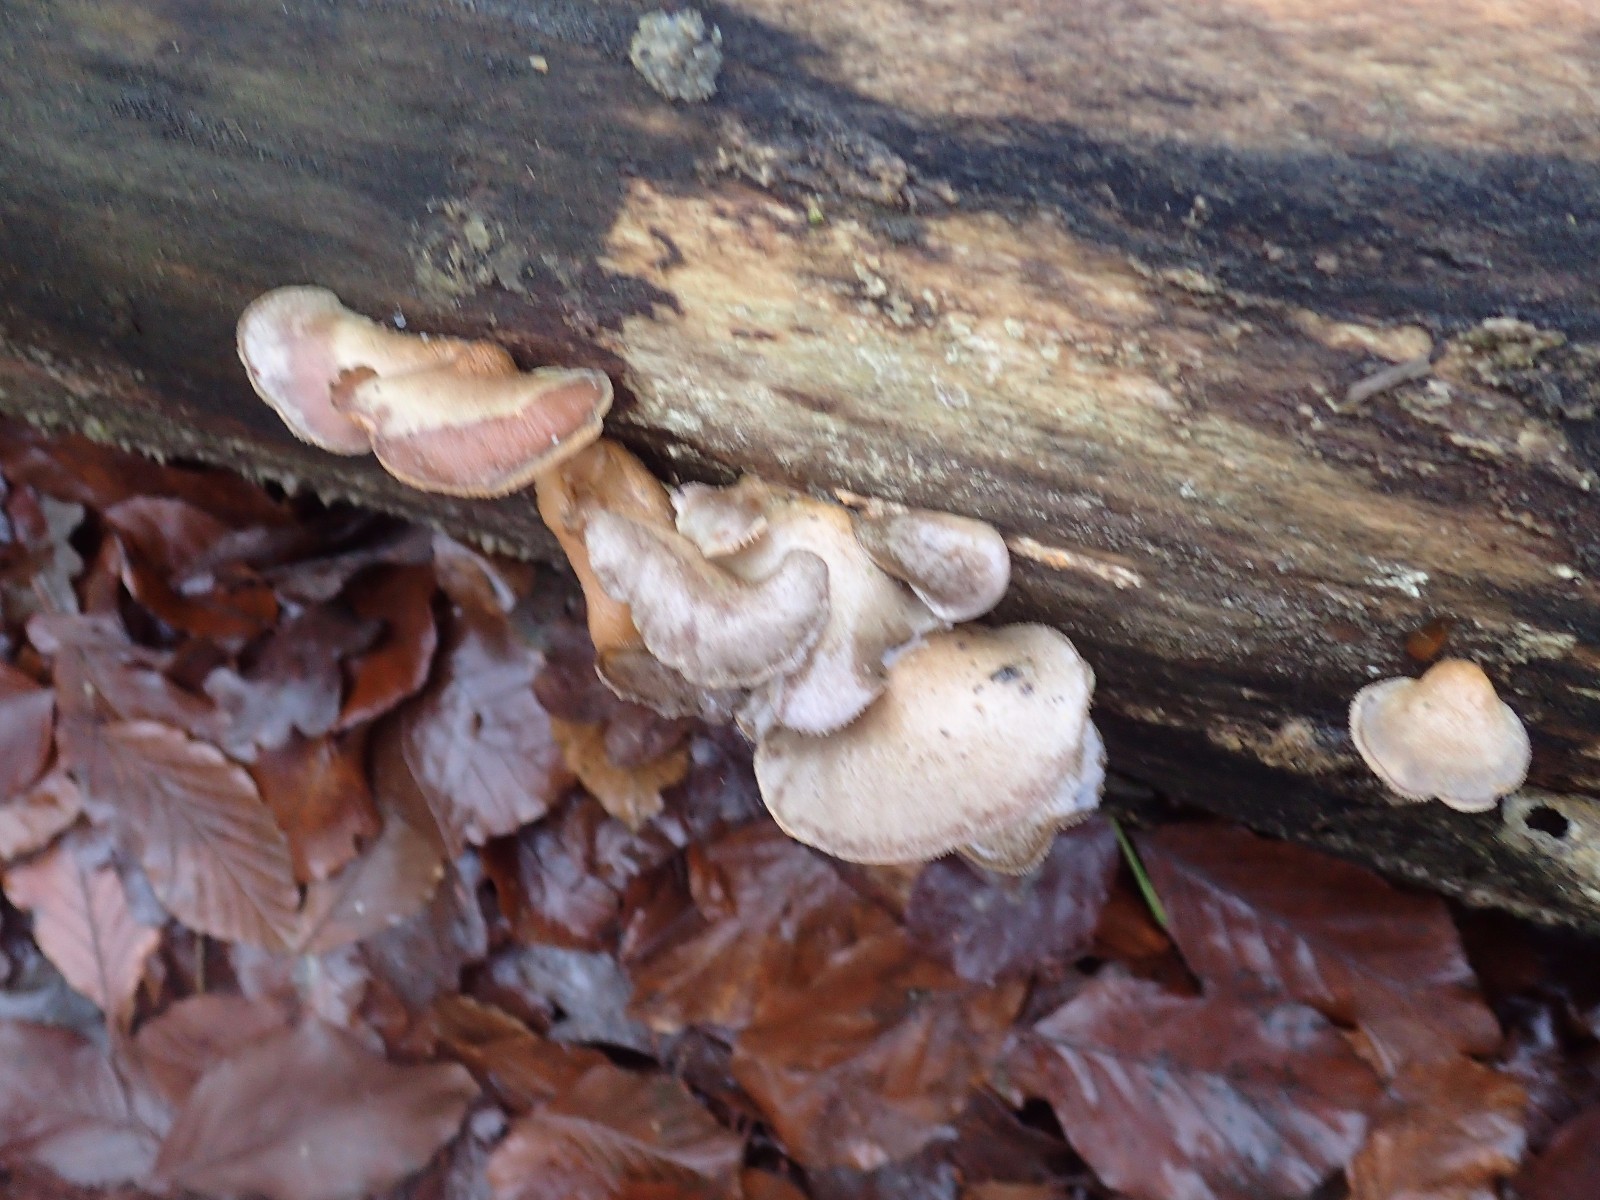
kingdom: Fungi
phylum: Basidiomycota
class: Agaricomycetes
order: Agaricales
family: Pleurotaceae
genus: Pleurotus
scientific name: Pleurotus ostreatus
